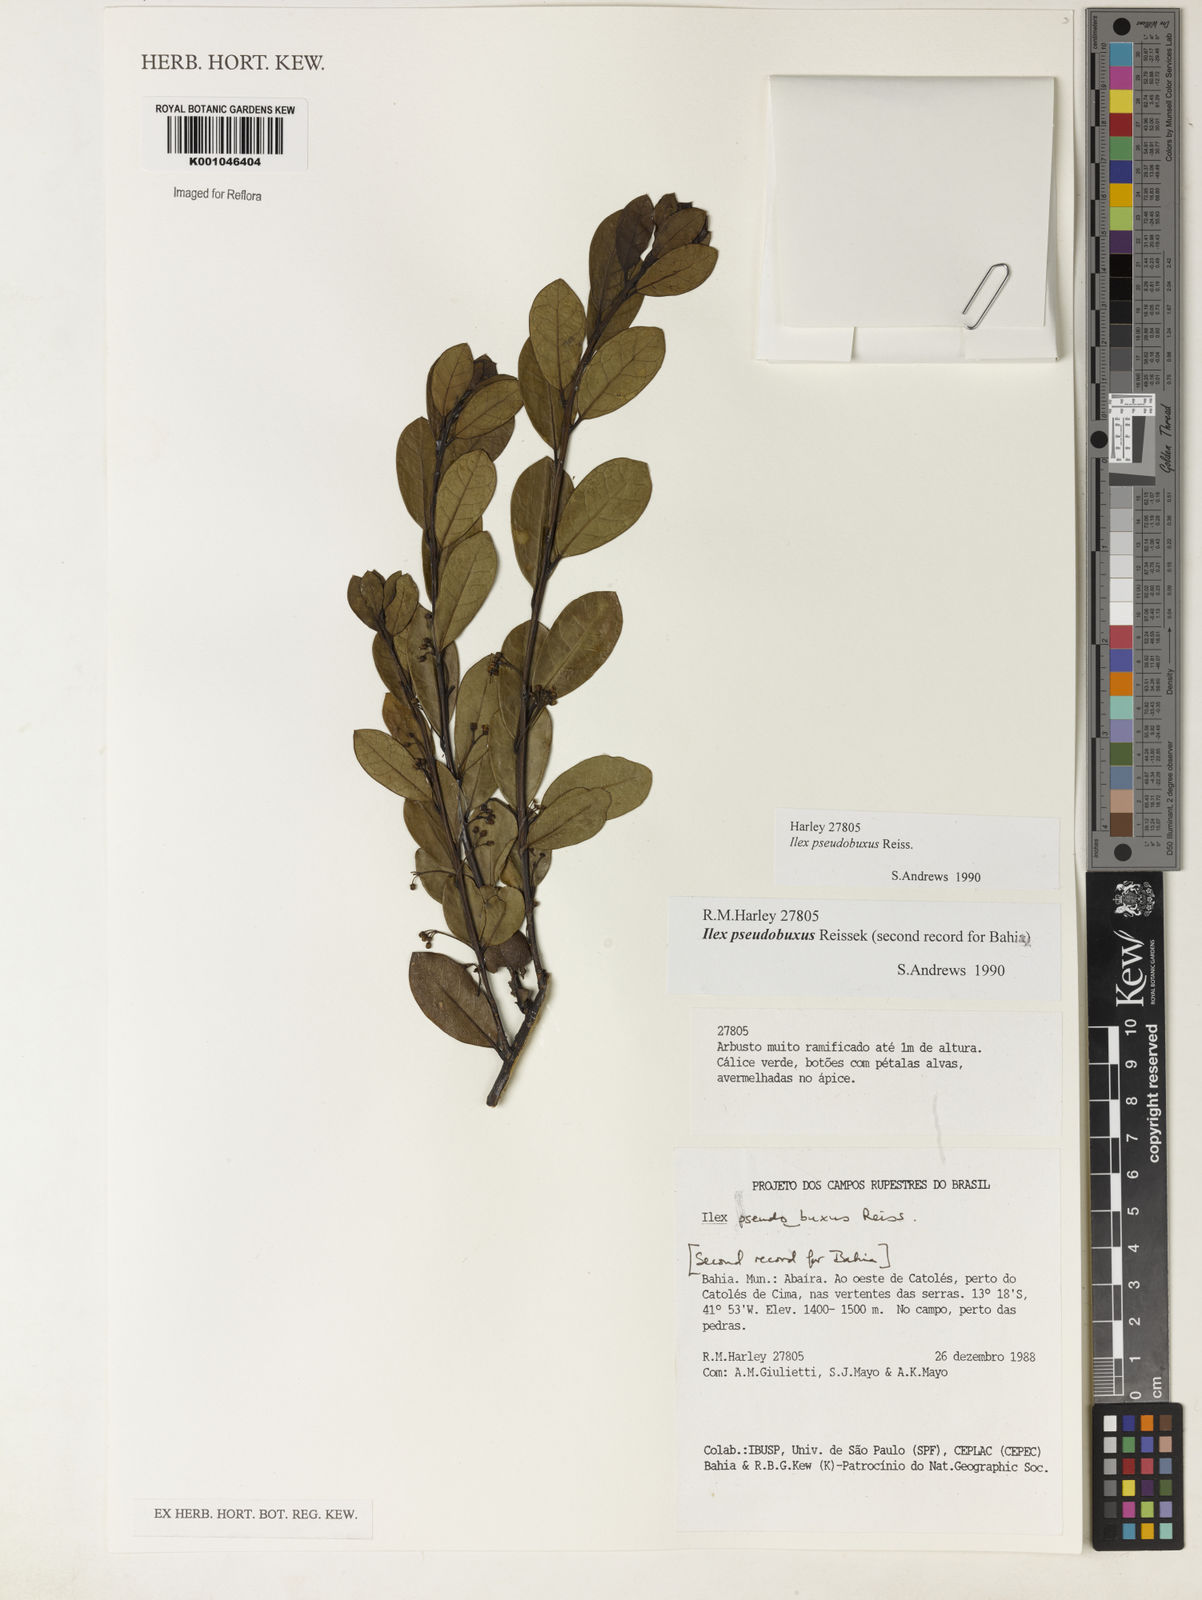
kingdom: Plantae
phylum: Tracheophyta
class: Magnoliopsida
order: Aquifoliales
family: Aquifoliaceae
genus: Ilex
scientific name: Ilex pseudobuxus
